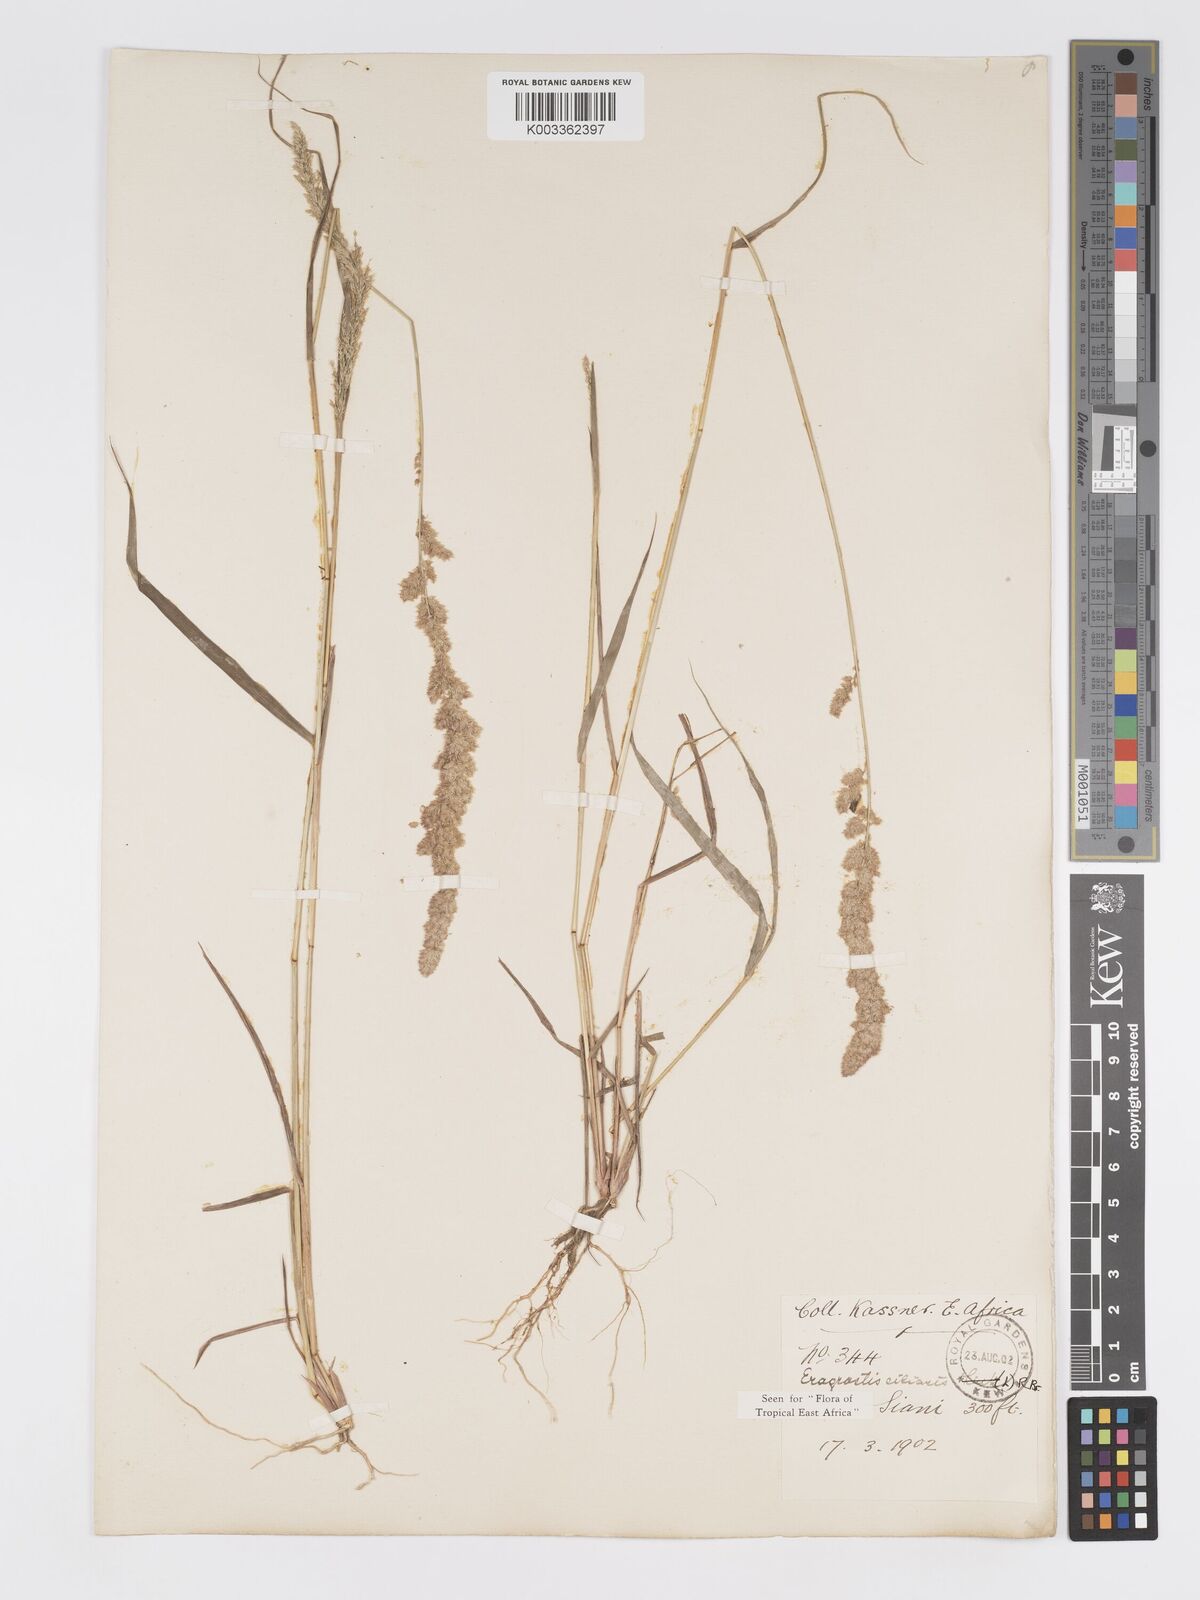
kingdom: Plantae
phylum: Tracheophyta
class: Liliopsida
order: Poales
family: Poaceae
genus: Eragrostis
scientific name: Eragrostis ciliaris
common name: Gophertail lovegrass
